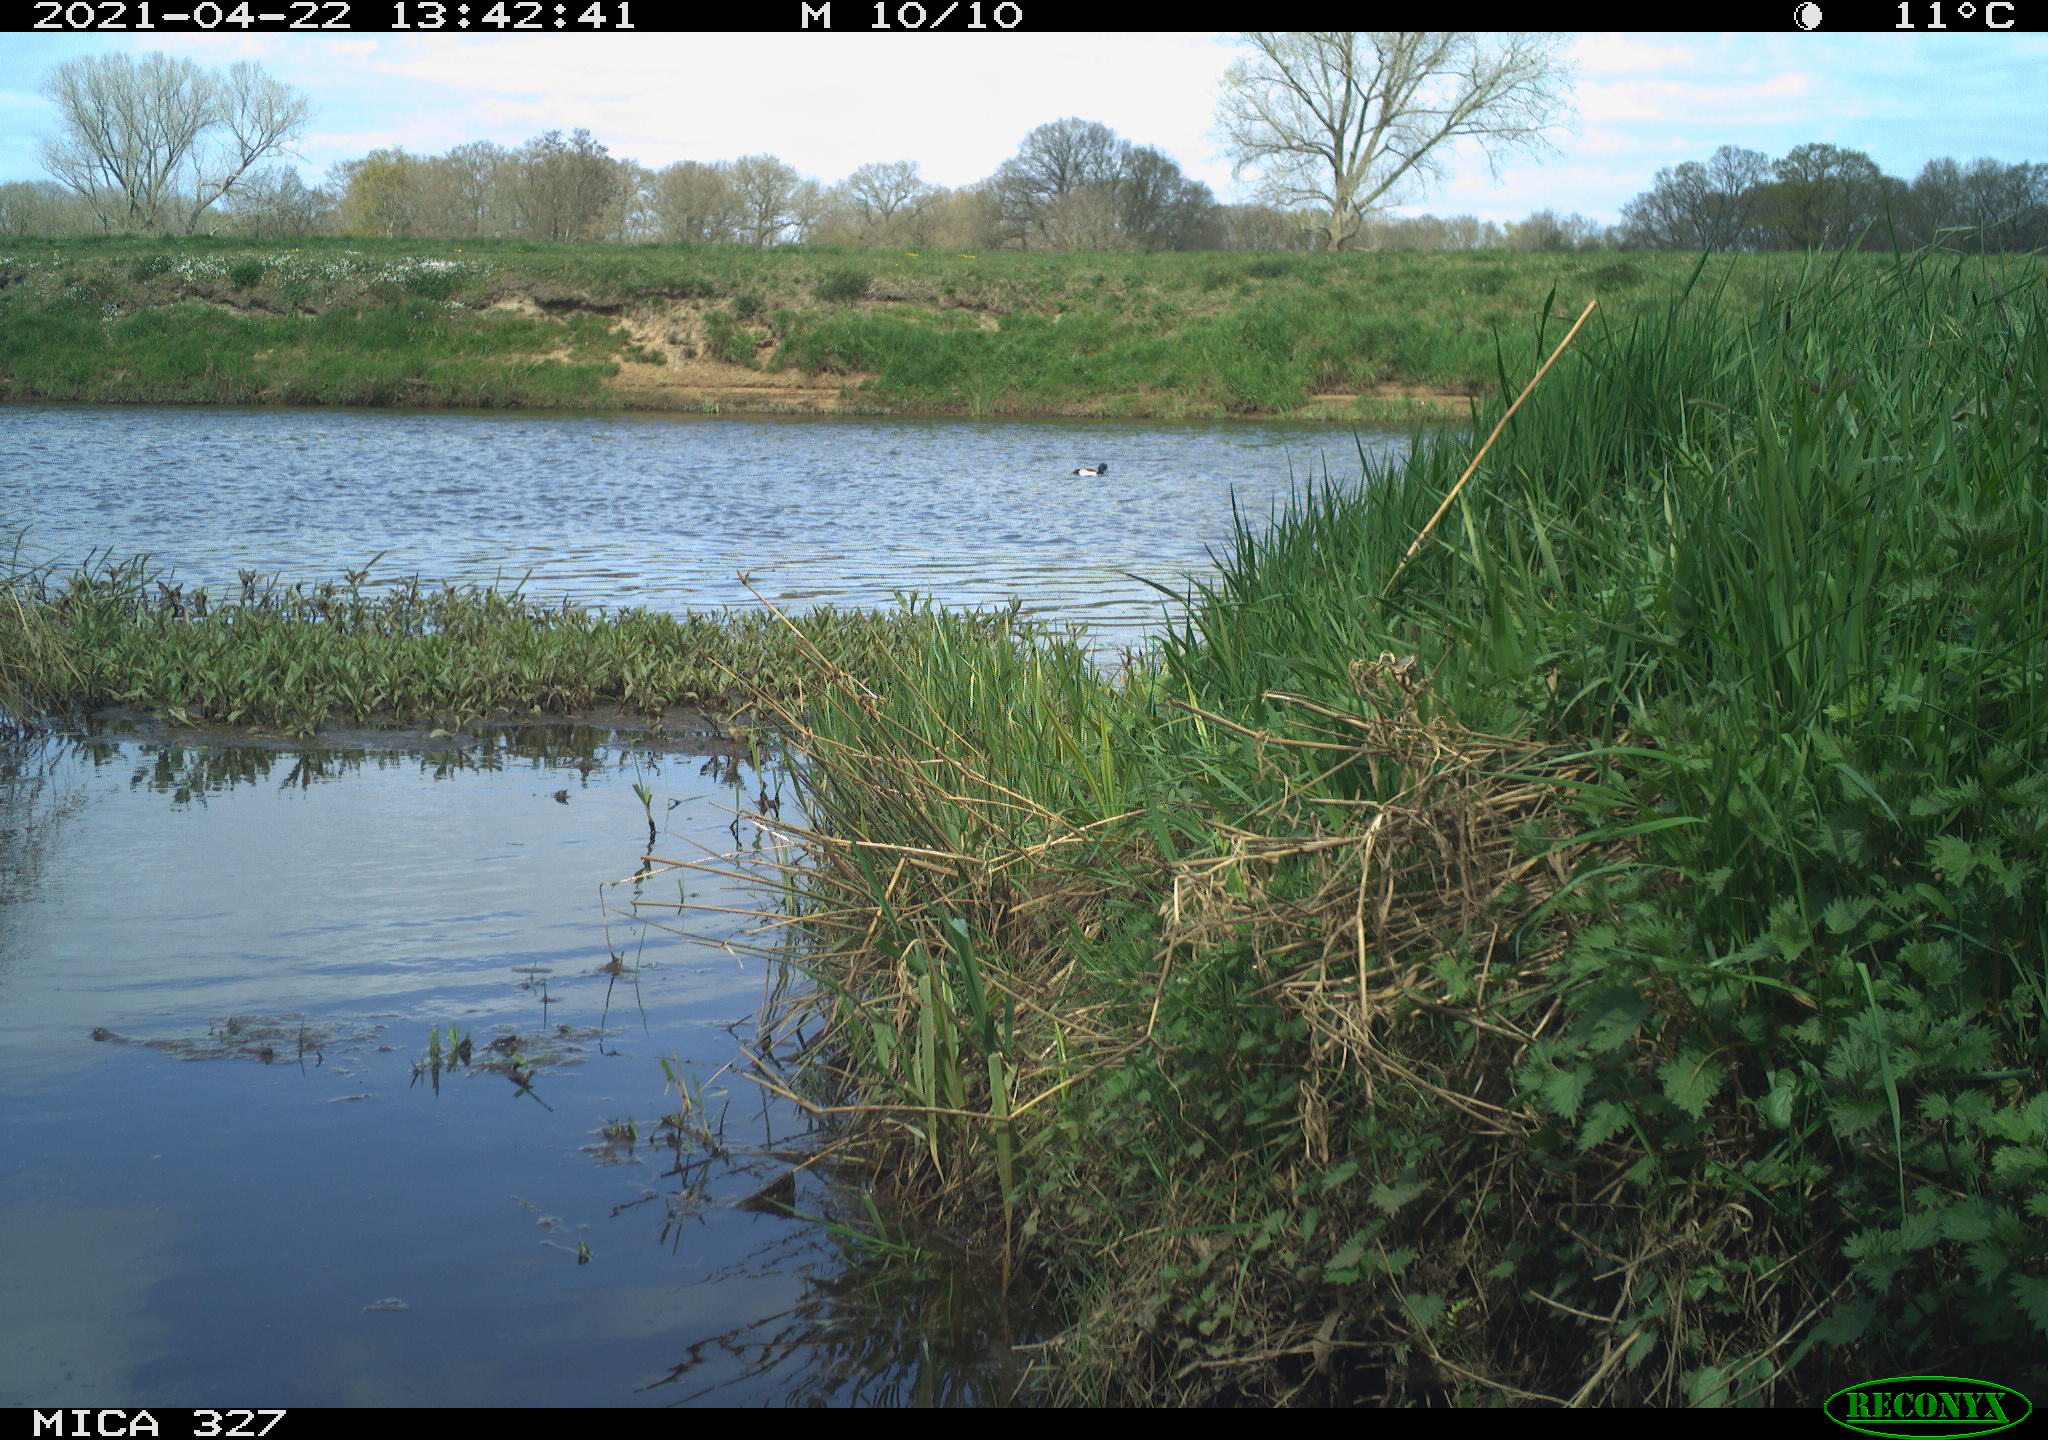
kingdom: Animalia
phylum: Chordata
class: Aves
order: Gruiformes
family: Rallidae
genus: Fulica
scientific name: Fulica atra
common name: Eurasian coot
